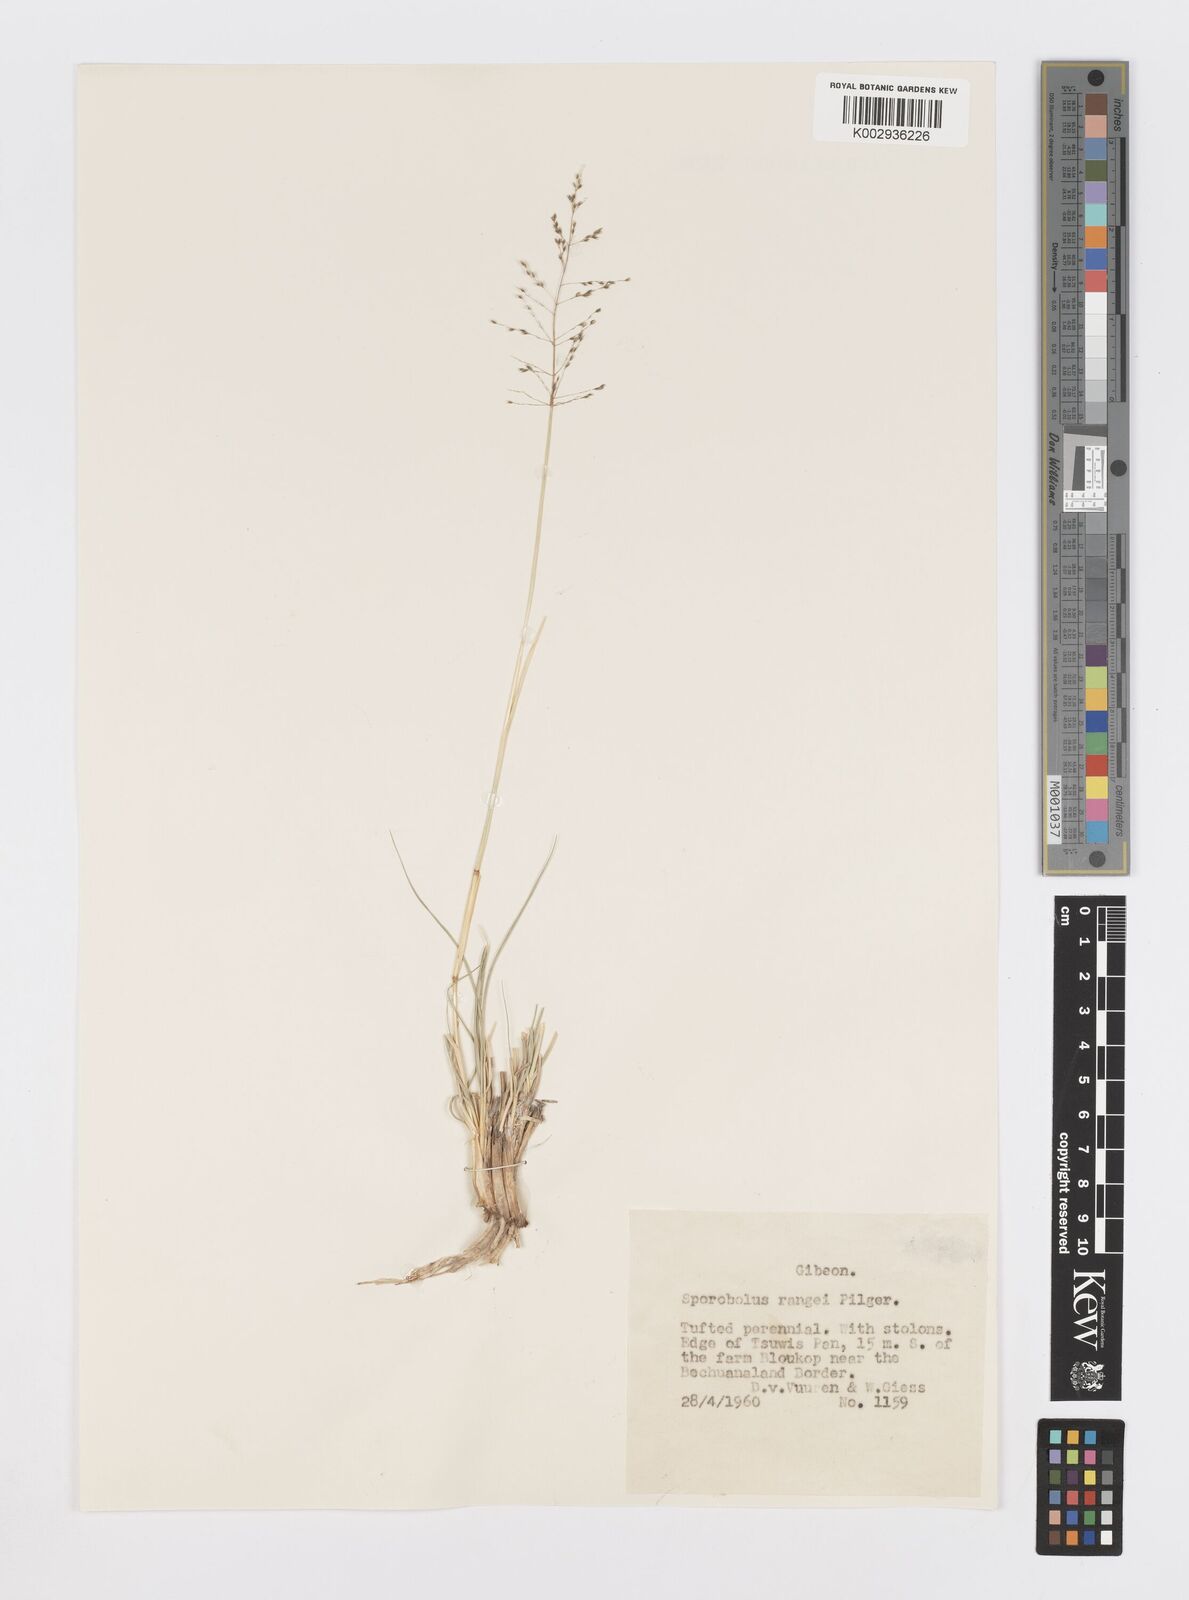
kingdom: Plantae
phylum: Tracheophyta
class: Liliopsida
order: Poales
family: Poaceae
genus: Sporobolus
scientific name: Sporobolus ioclados
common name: Pan dropseed
